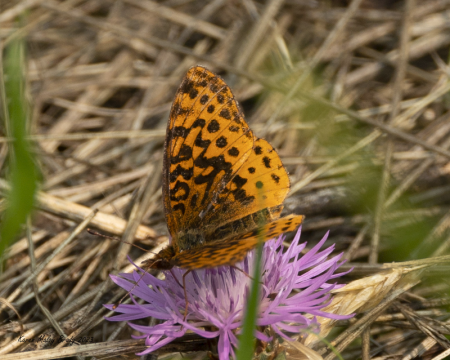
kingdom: Animalia
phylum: Arthropoda
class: Insecta
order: Lepidoptera
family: Nymphalidae
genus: Clossiana
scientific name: Clossiana toddi
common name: Meadow Fritillary
